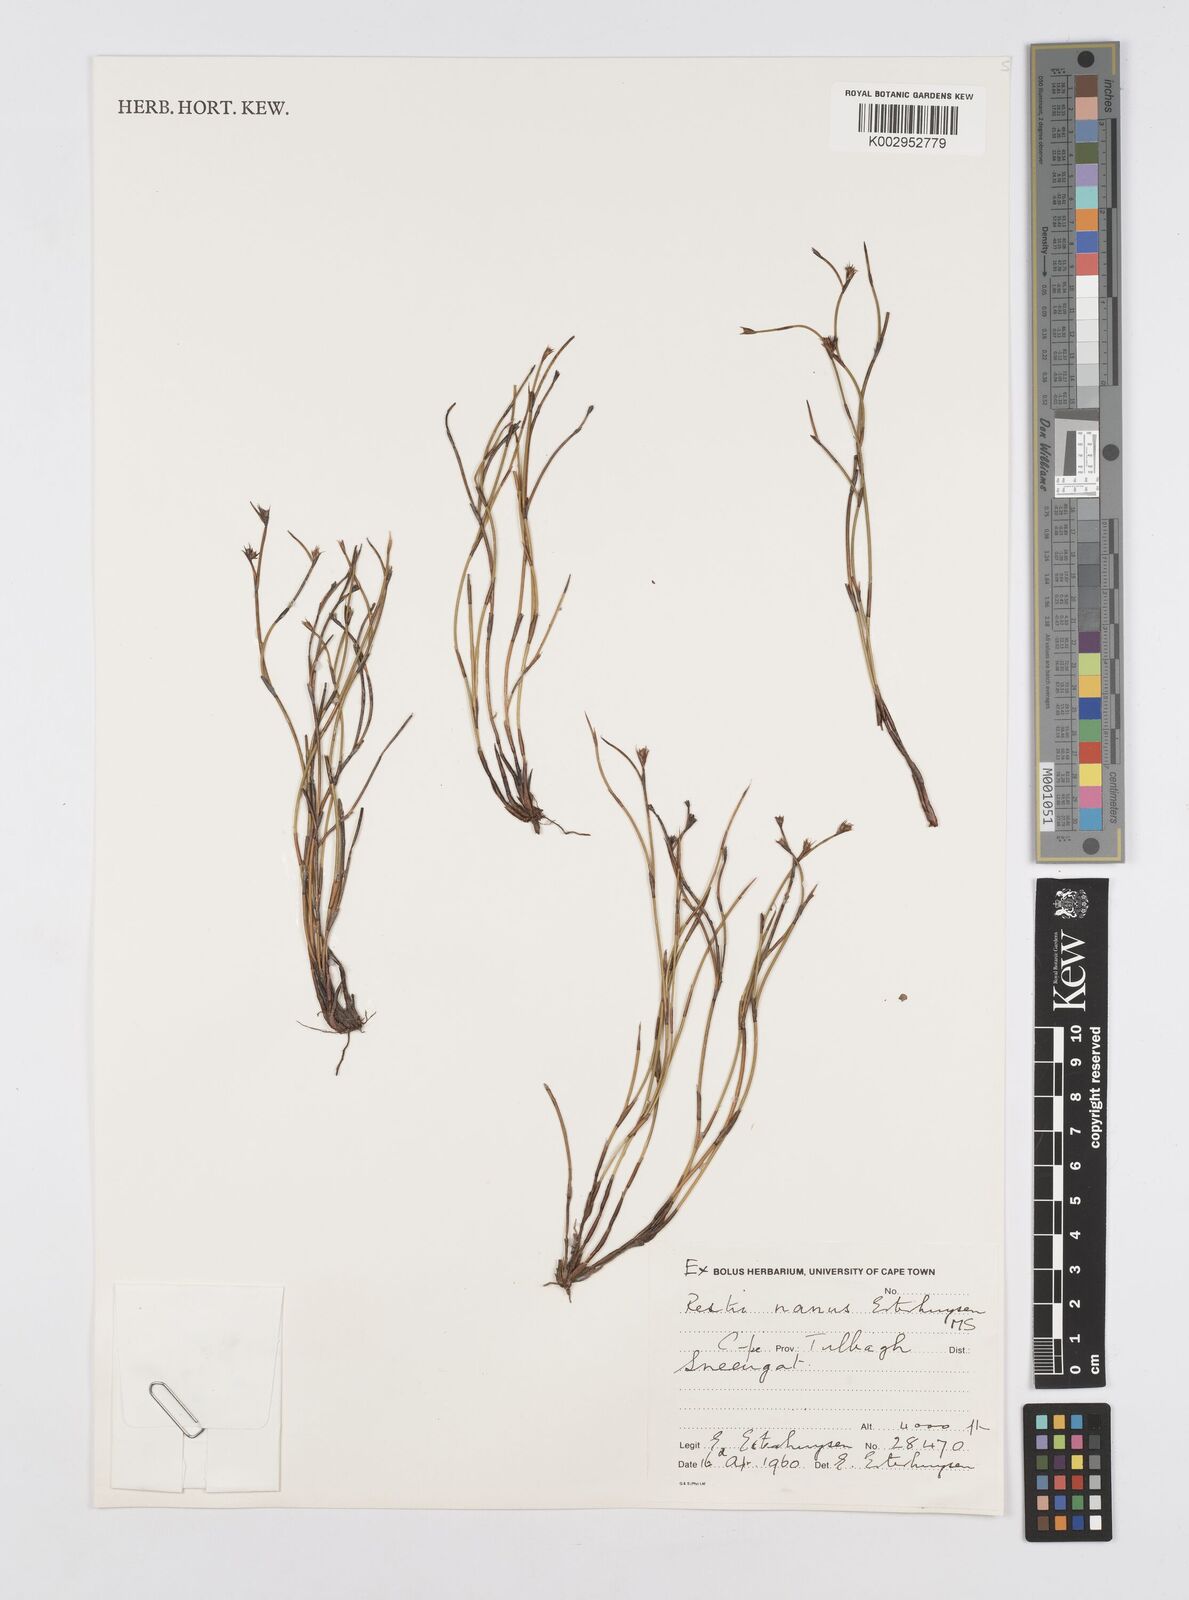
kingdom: Plantae
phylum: Tracheophyta
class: Liliopsida
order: Poales
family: Restionaceae
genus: Restio
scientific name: Restio nanus
